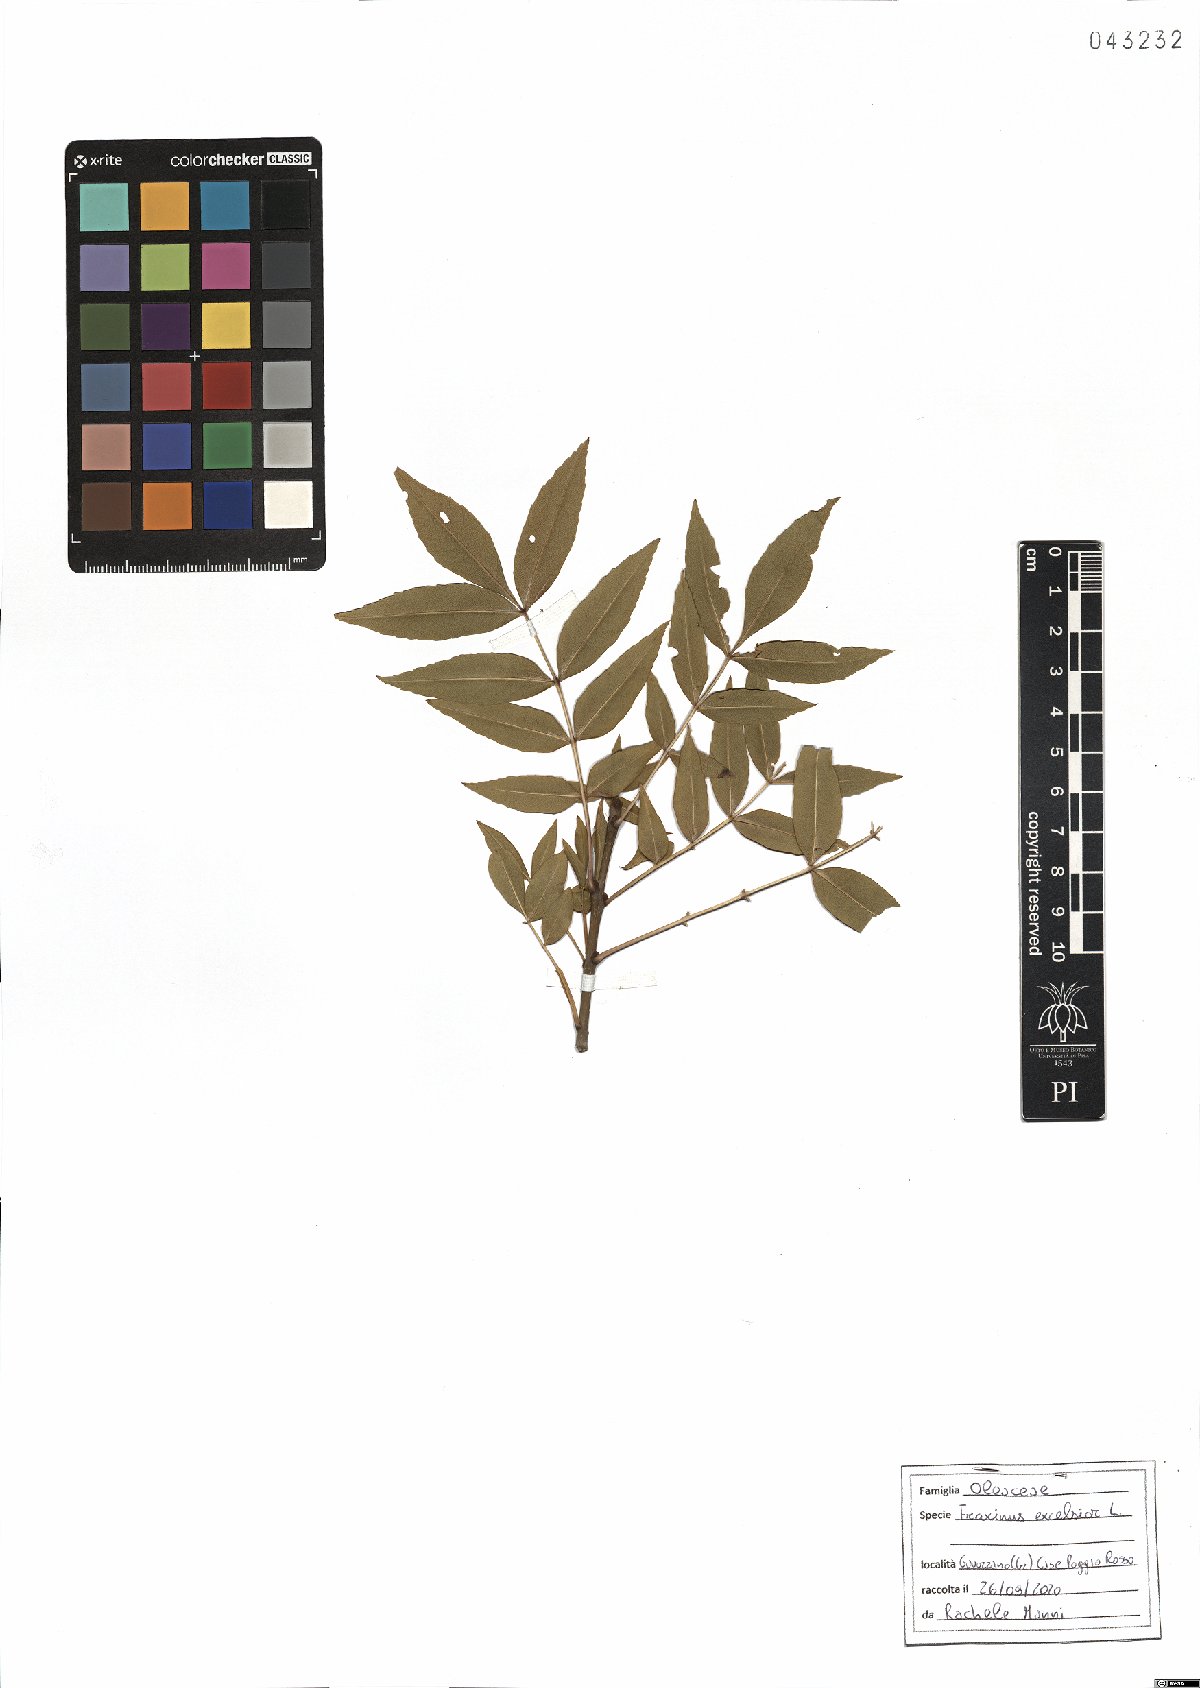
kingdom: Plantae
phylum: Tracheophyta
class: Magnoliopsida
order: Lamiales
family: Oleaceae
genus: Fraxinus
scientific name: Fraxinus excelsior
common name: European ash
